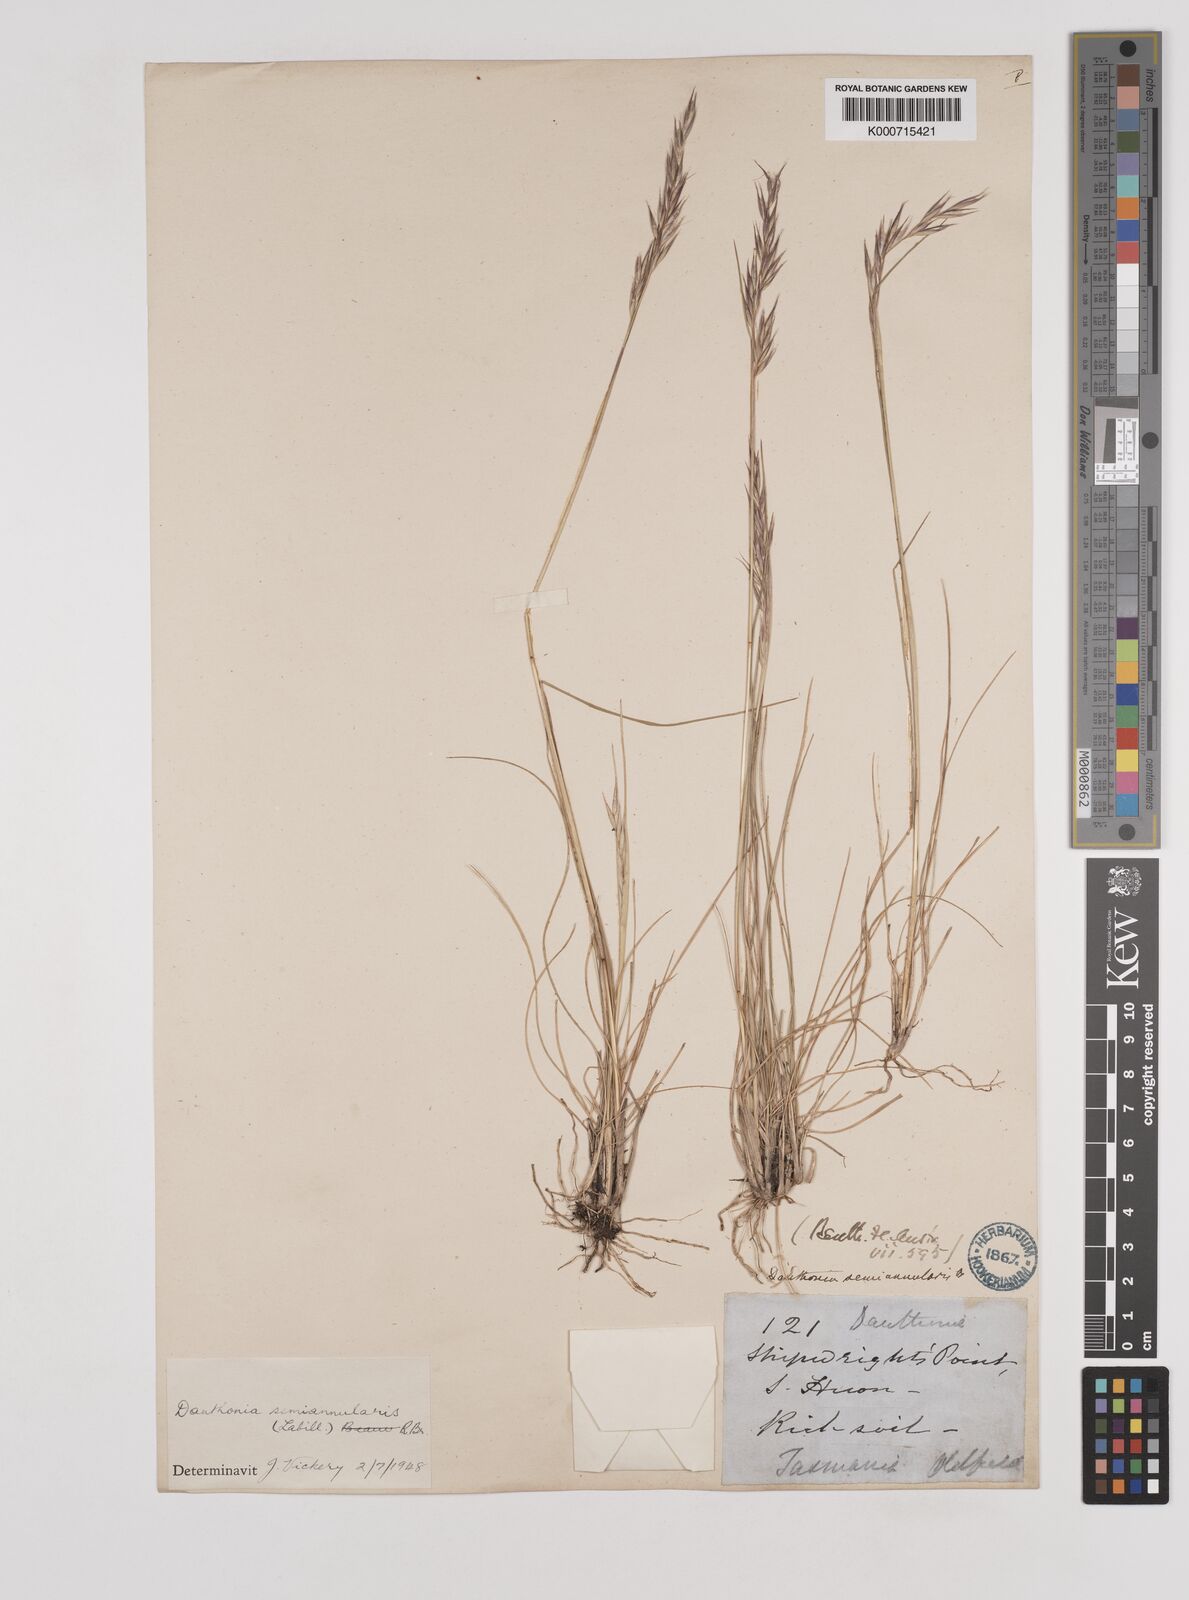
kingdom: Plantae
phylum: Tracheophyta
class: Liliopsida
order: Poales
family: Poaceae
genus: Rytidosperma
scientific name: Rytidosperma semiannulare
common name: Tasmanian wallaby grass
